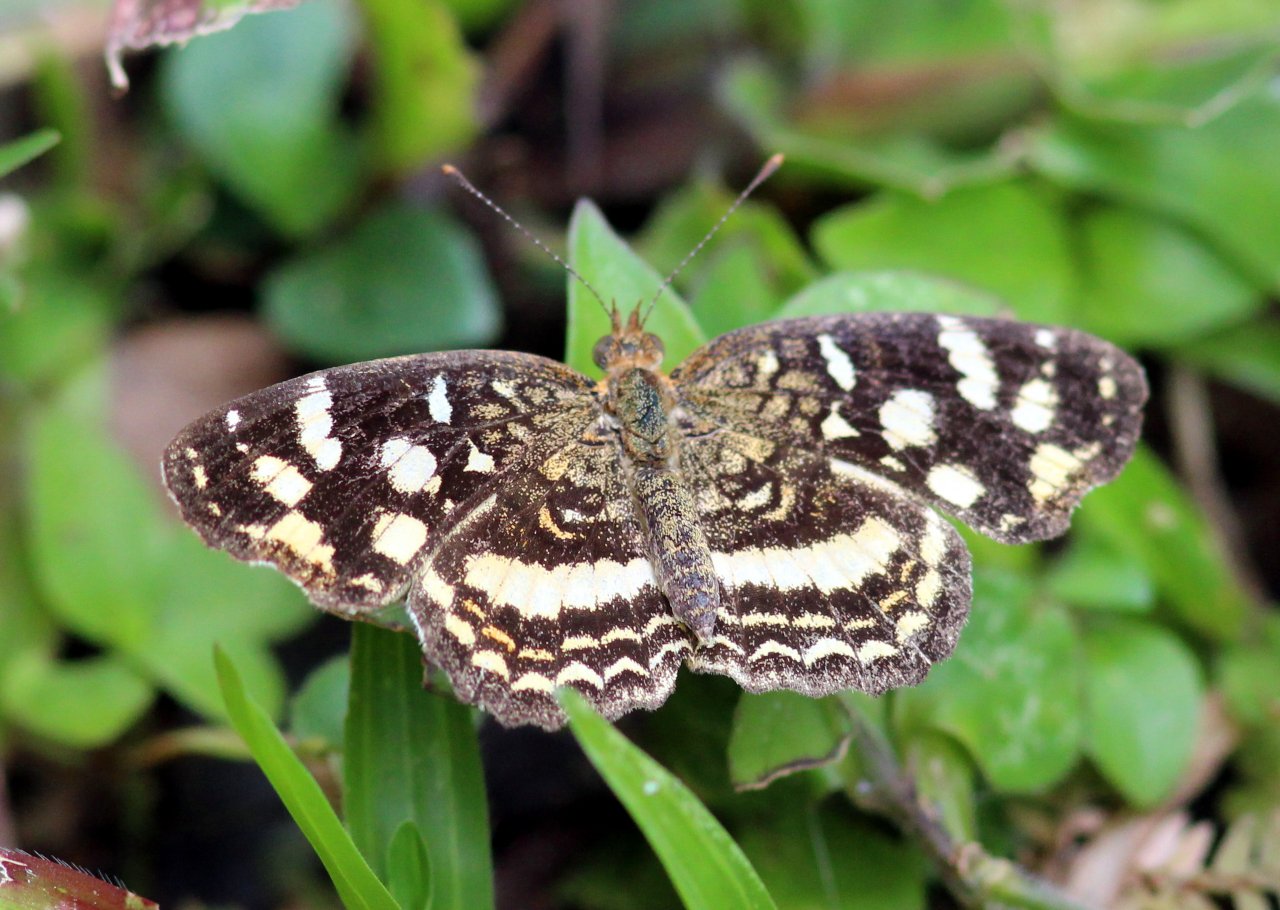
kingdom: Animalia
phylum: Arthropoda
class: Insecta
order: Lepidoptera
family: Nymphalidae
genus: Anthanassa
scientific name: Anthanassa tulcis
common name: Pale-banded Crescent
